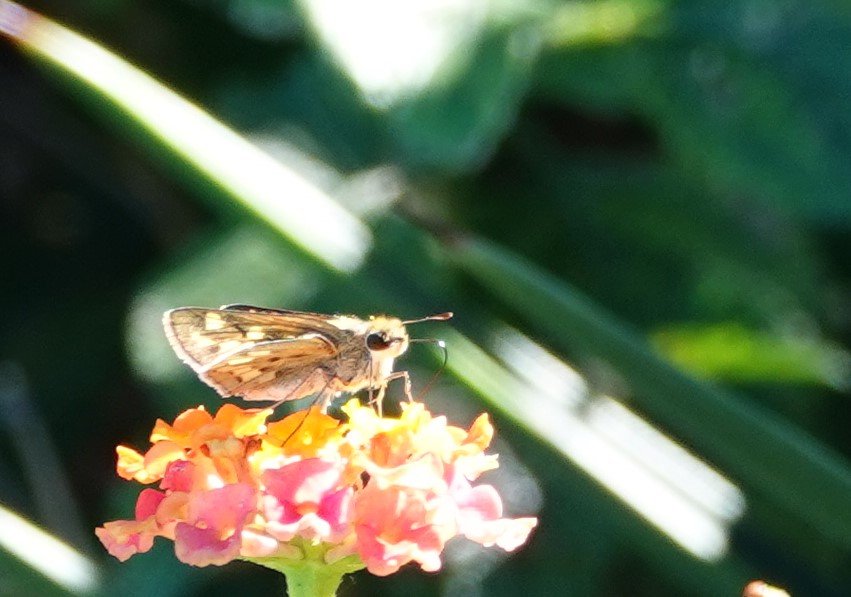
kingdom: Animalia
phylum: Arthropoda
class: Insecta
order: Lepidoptera
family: Hesperiidae
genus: Hylephila
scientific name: Hylephila phyleus
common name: Fiery Skipper
